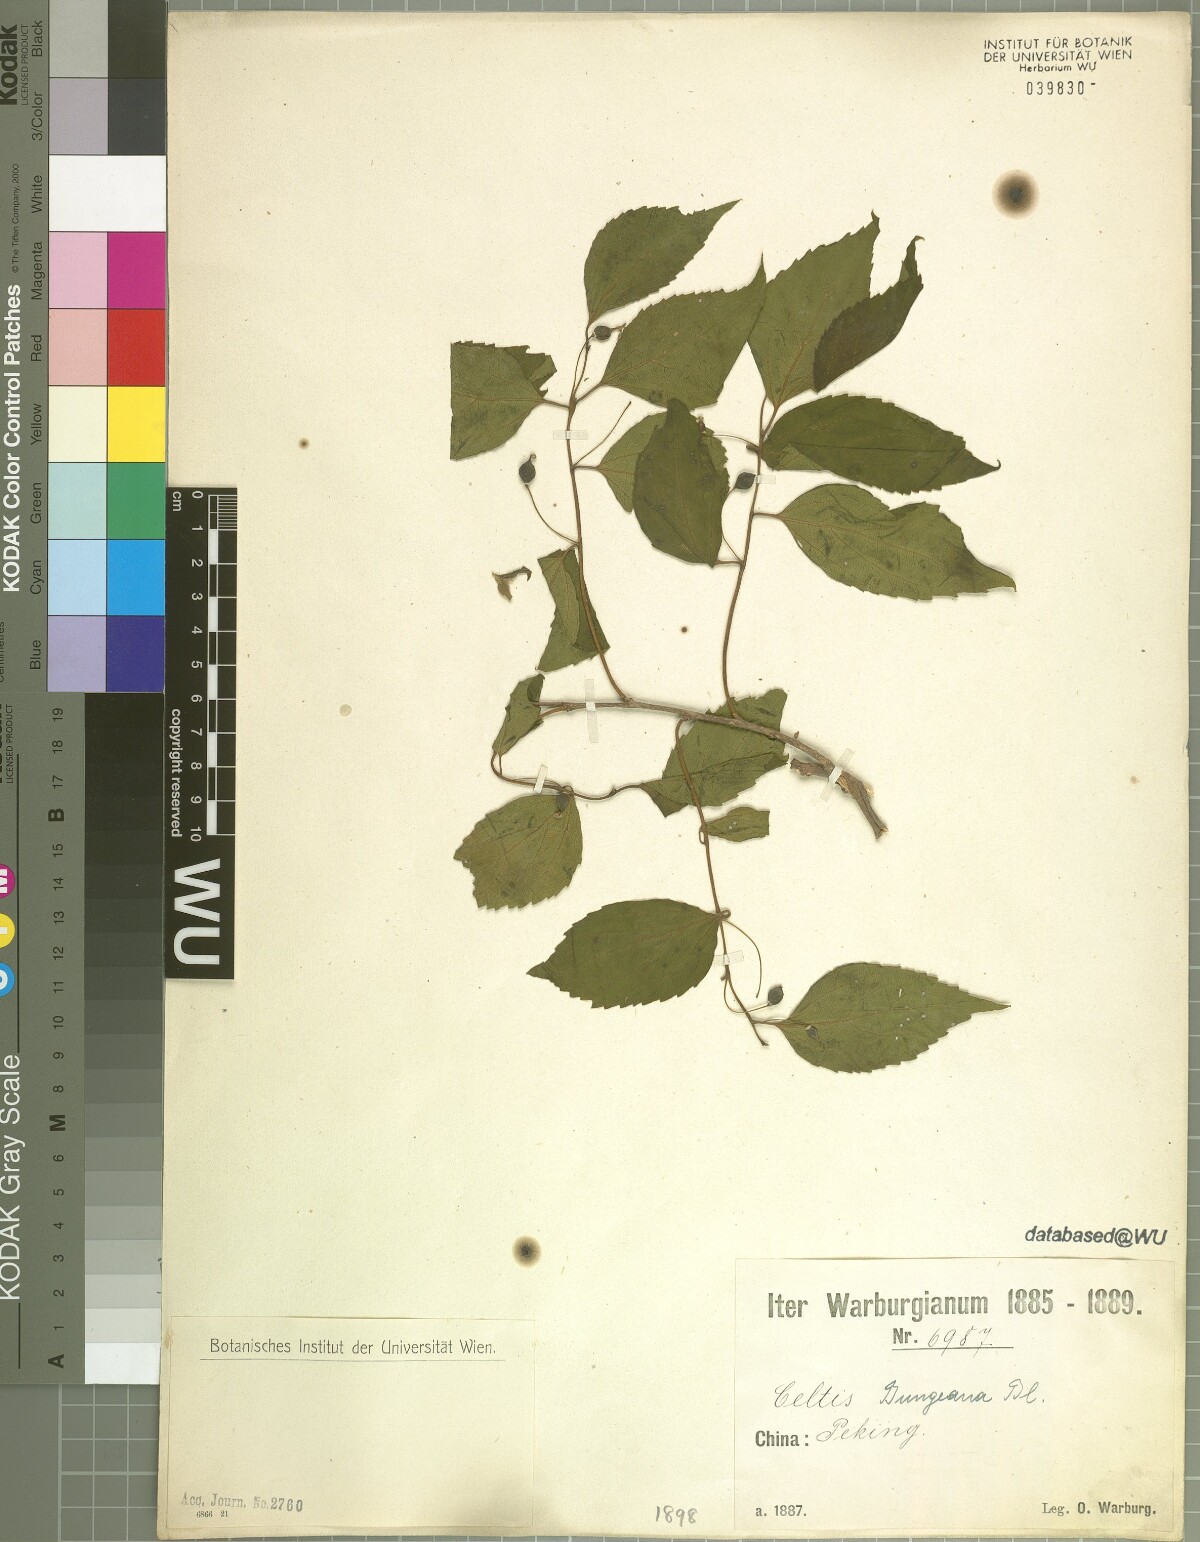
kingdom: Plantae
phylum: Tracheophyta
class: Magnoliopsida
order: Rosales
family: Cannabaceae
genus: Celtis
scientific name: Celtis bungeana
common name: Bunge's hackberry
